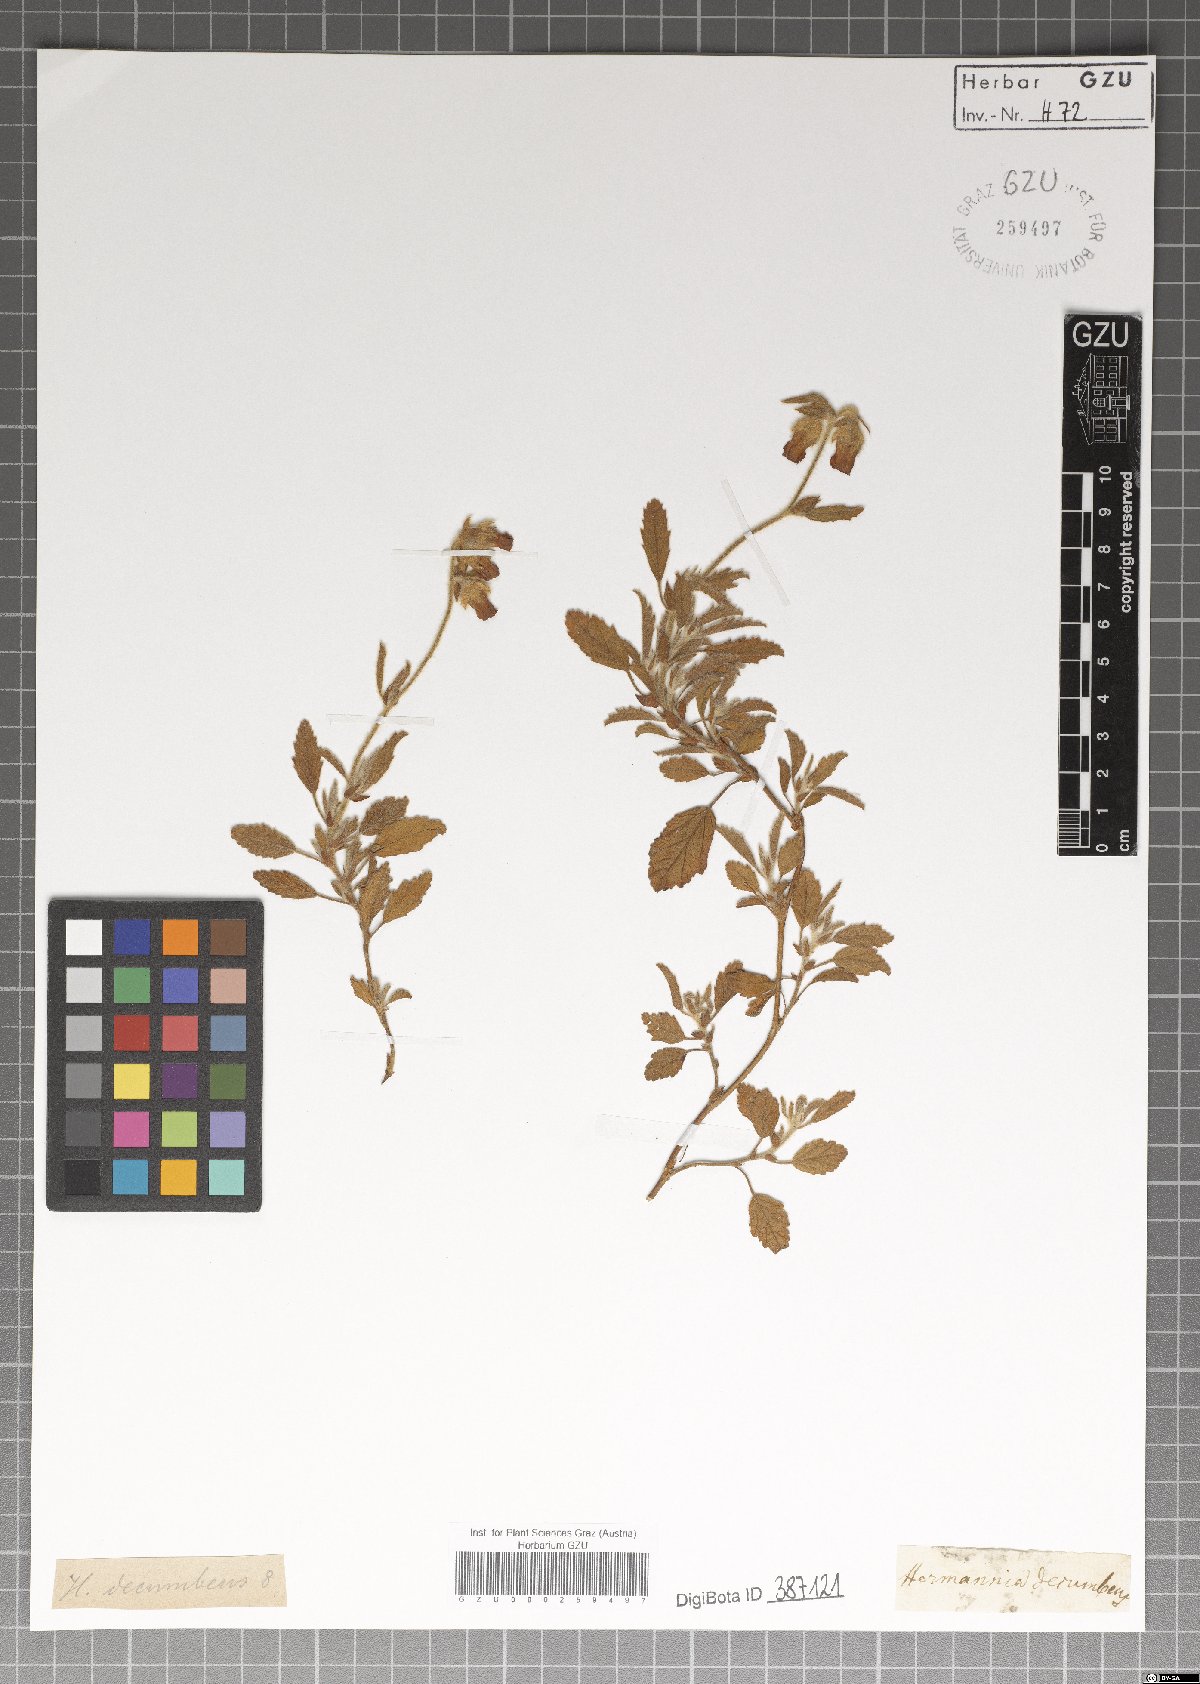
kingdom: Plantae
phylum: Tracheophyta
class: Magnoliopsida
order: Malvales
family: Malvaceae
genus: Hermannia
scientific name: Hermannia decumbens
